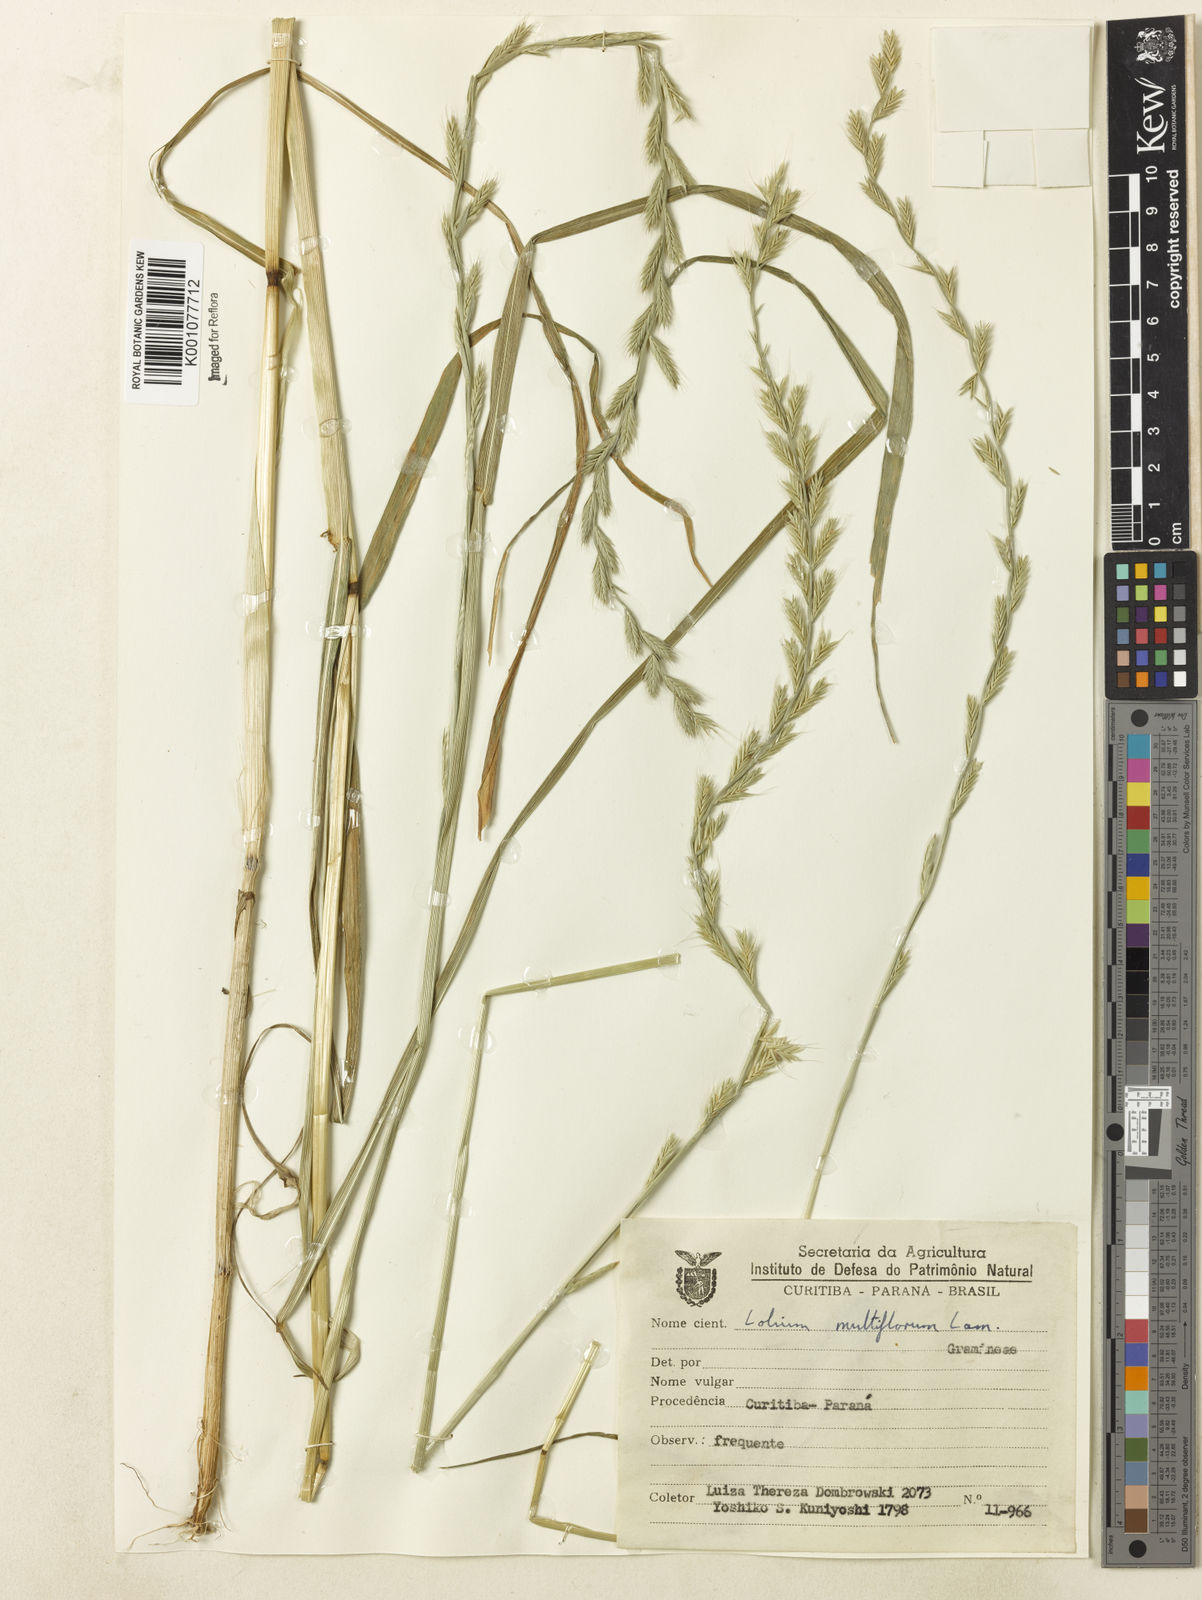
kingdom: Plantae
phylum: Tracheophyta
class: Liliopsida
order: Poales
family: Poaceae
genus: Lolium
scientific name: Lolium multiflorum
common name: Annual ryegrass
